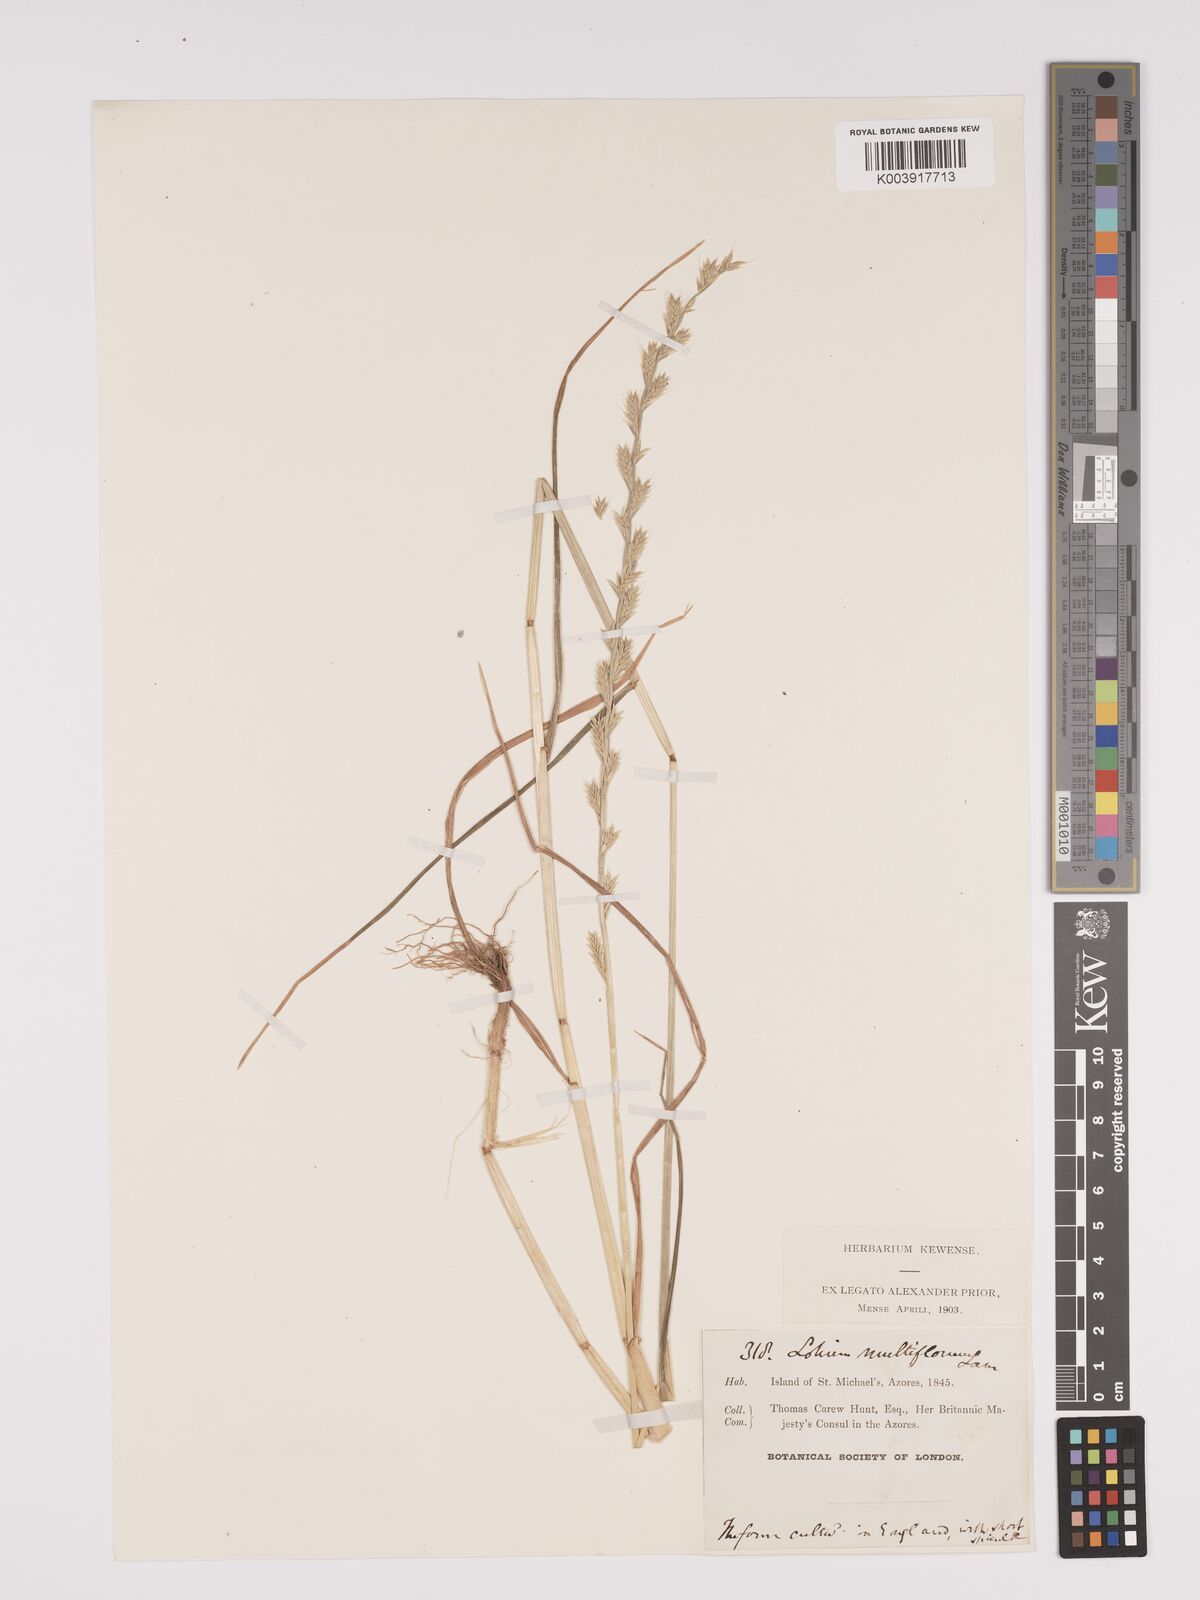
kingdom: Plantae
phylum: Tracheophyta
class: Liliopsida
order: Poales
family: Poaceae
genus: Lolium
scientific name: Lolium multiflorum
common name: Annual ryegrass
